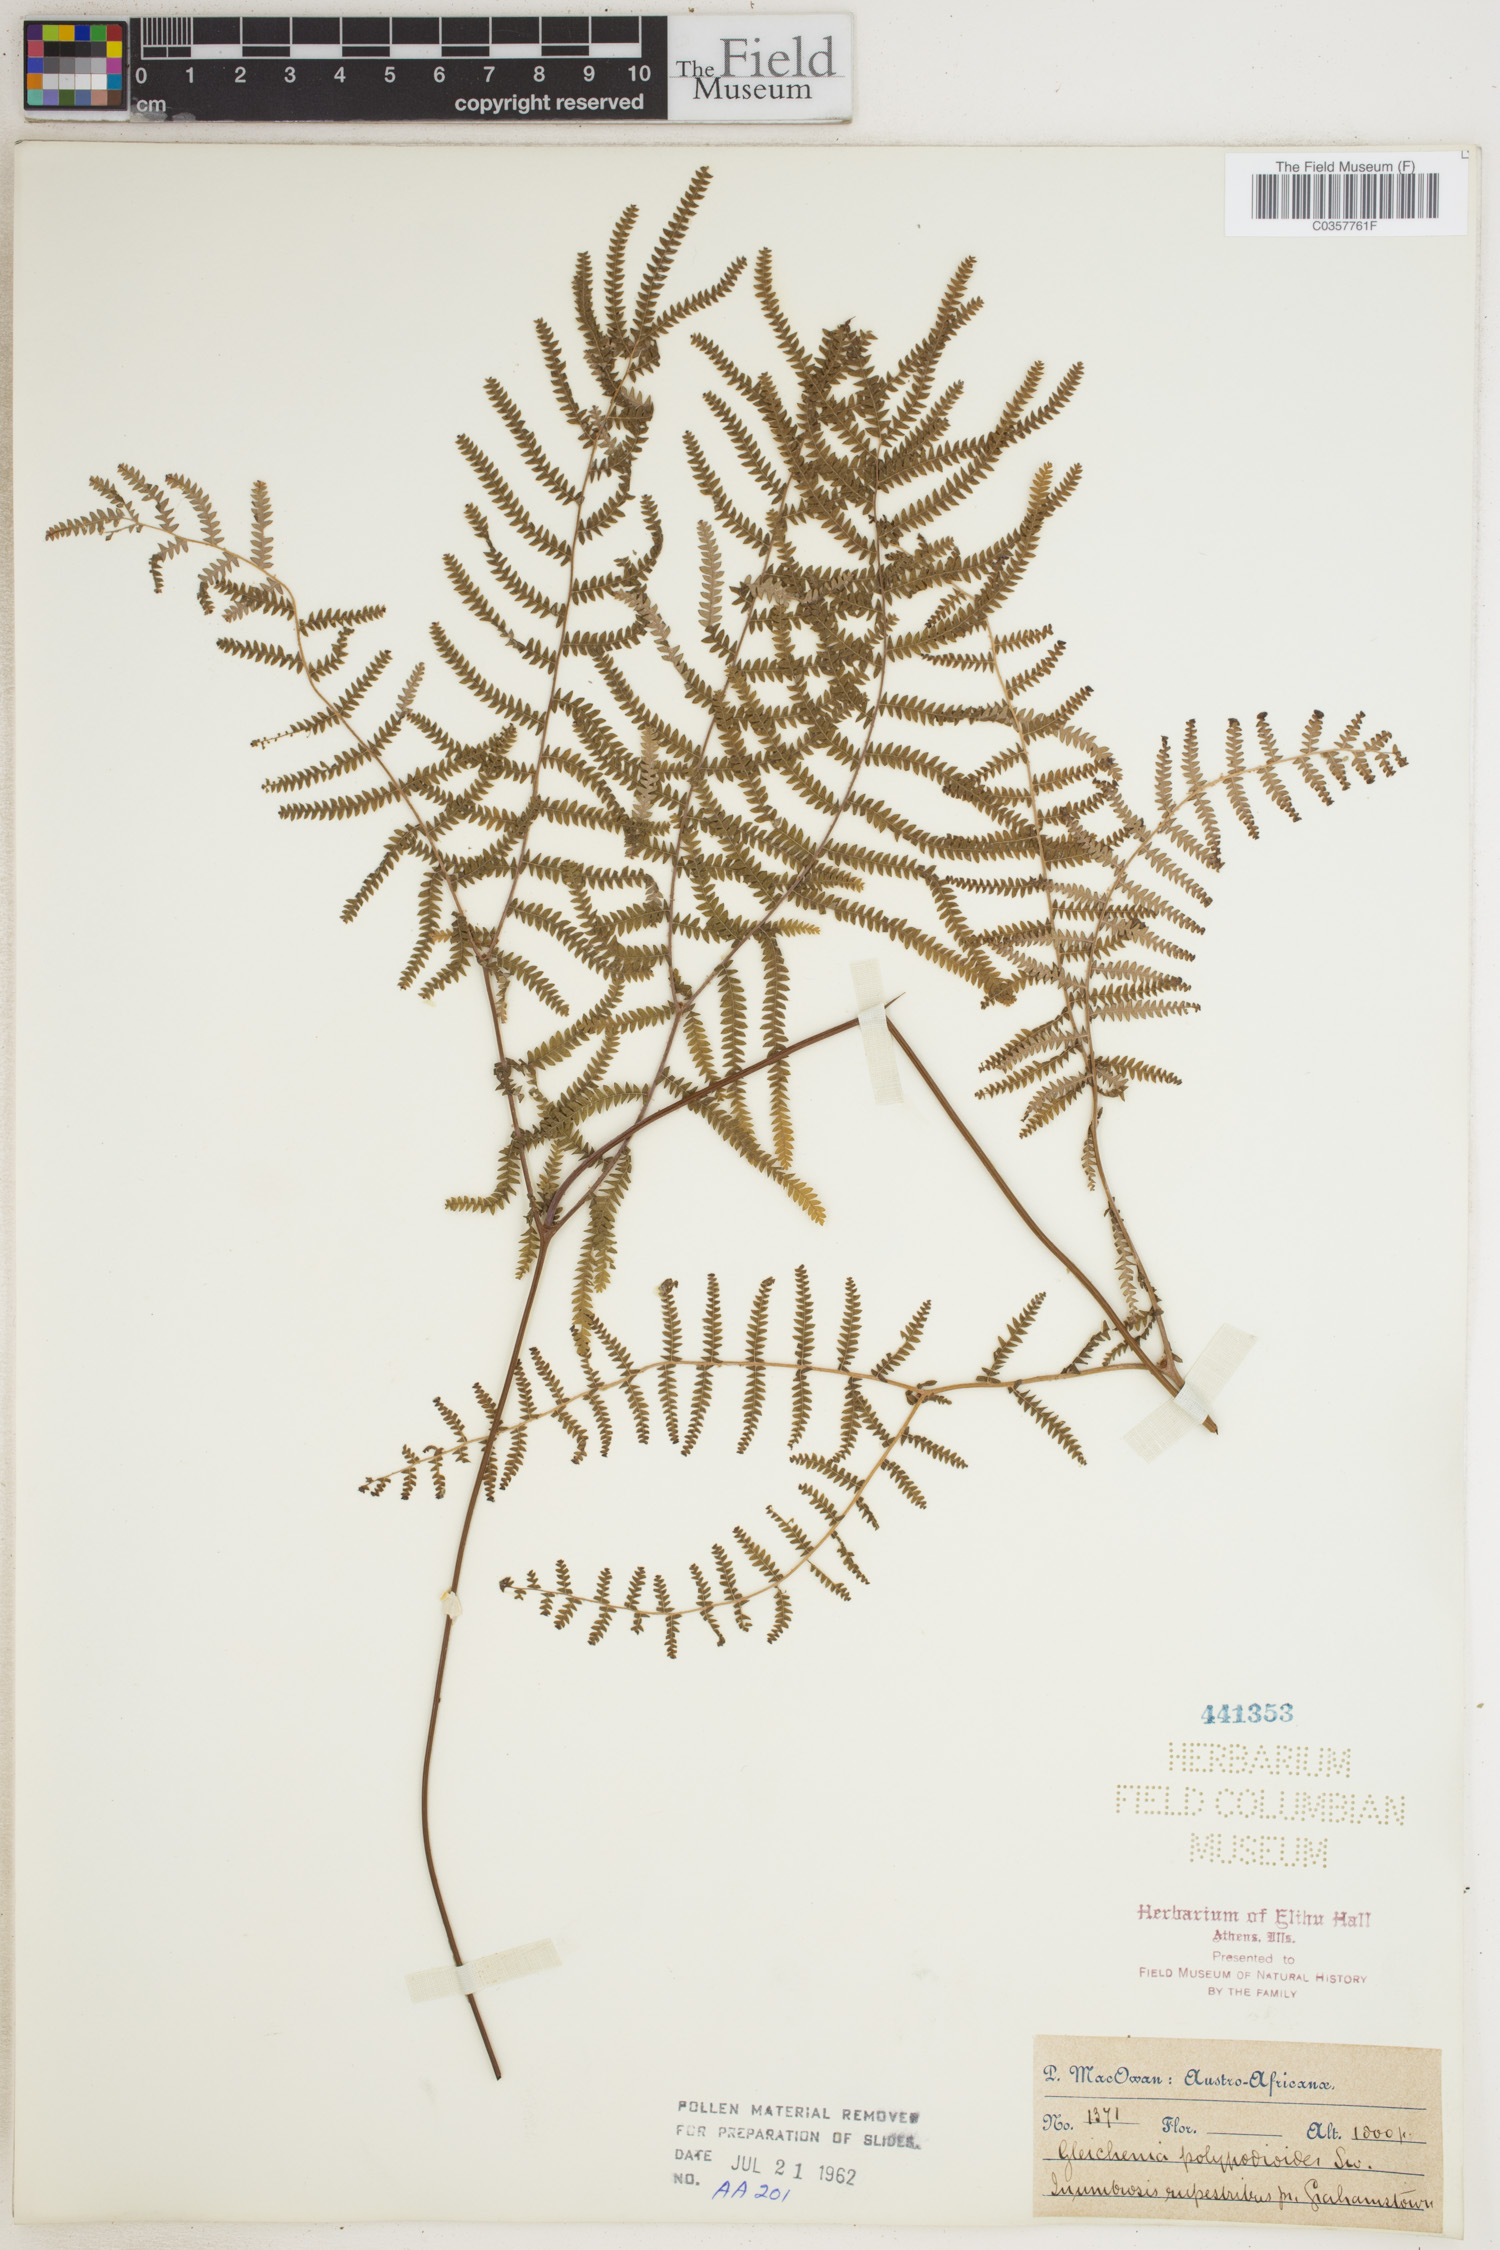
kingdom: Plantae
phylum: Tracheophyta
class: Polypodiopsida
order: Gleicheniales
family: Gleicheniaceae
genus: Gleichenia
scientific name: Gleichenia polypodioides
